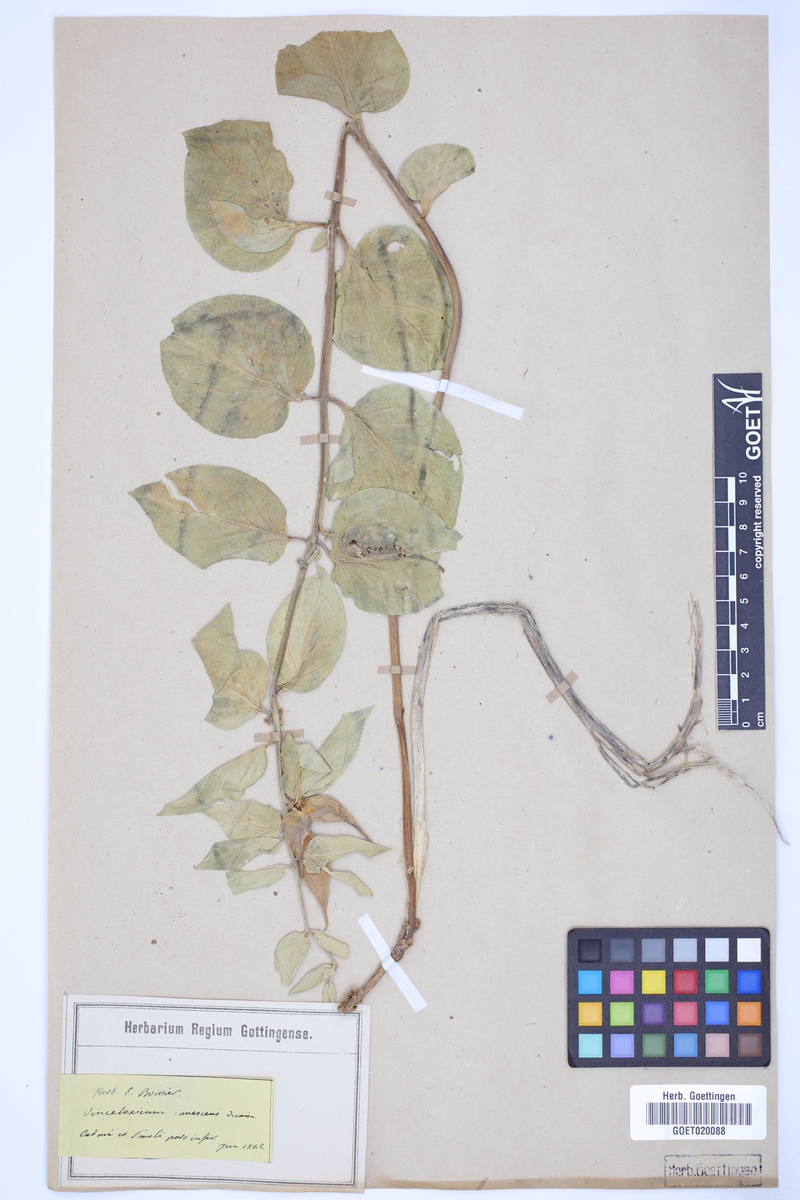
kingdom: Plantae
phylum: Tracheophyta
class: Magnoliopsida
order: Gentianales
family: Apocynaceae
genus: Vincetoxicum
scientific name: Vincetoxicum canescens
